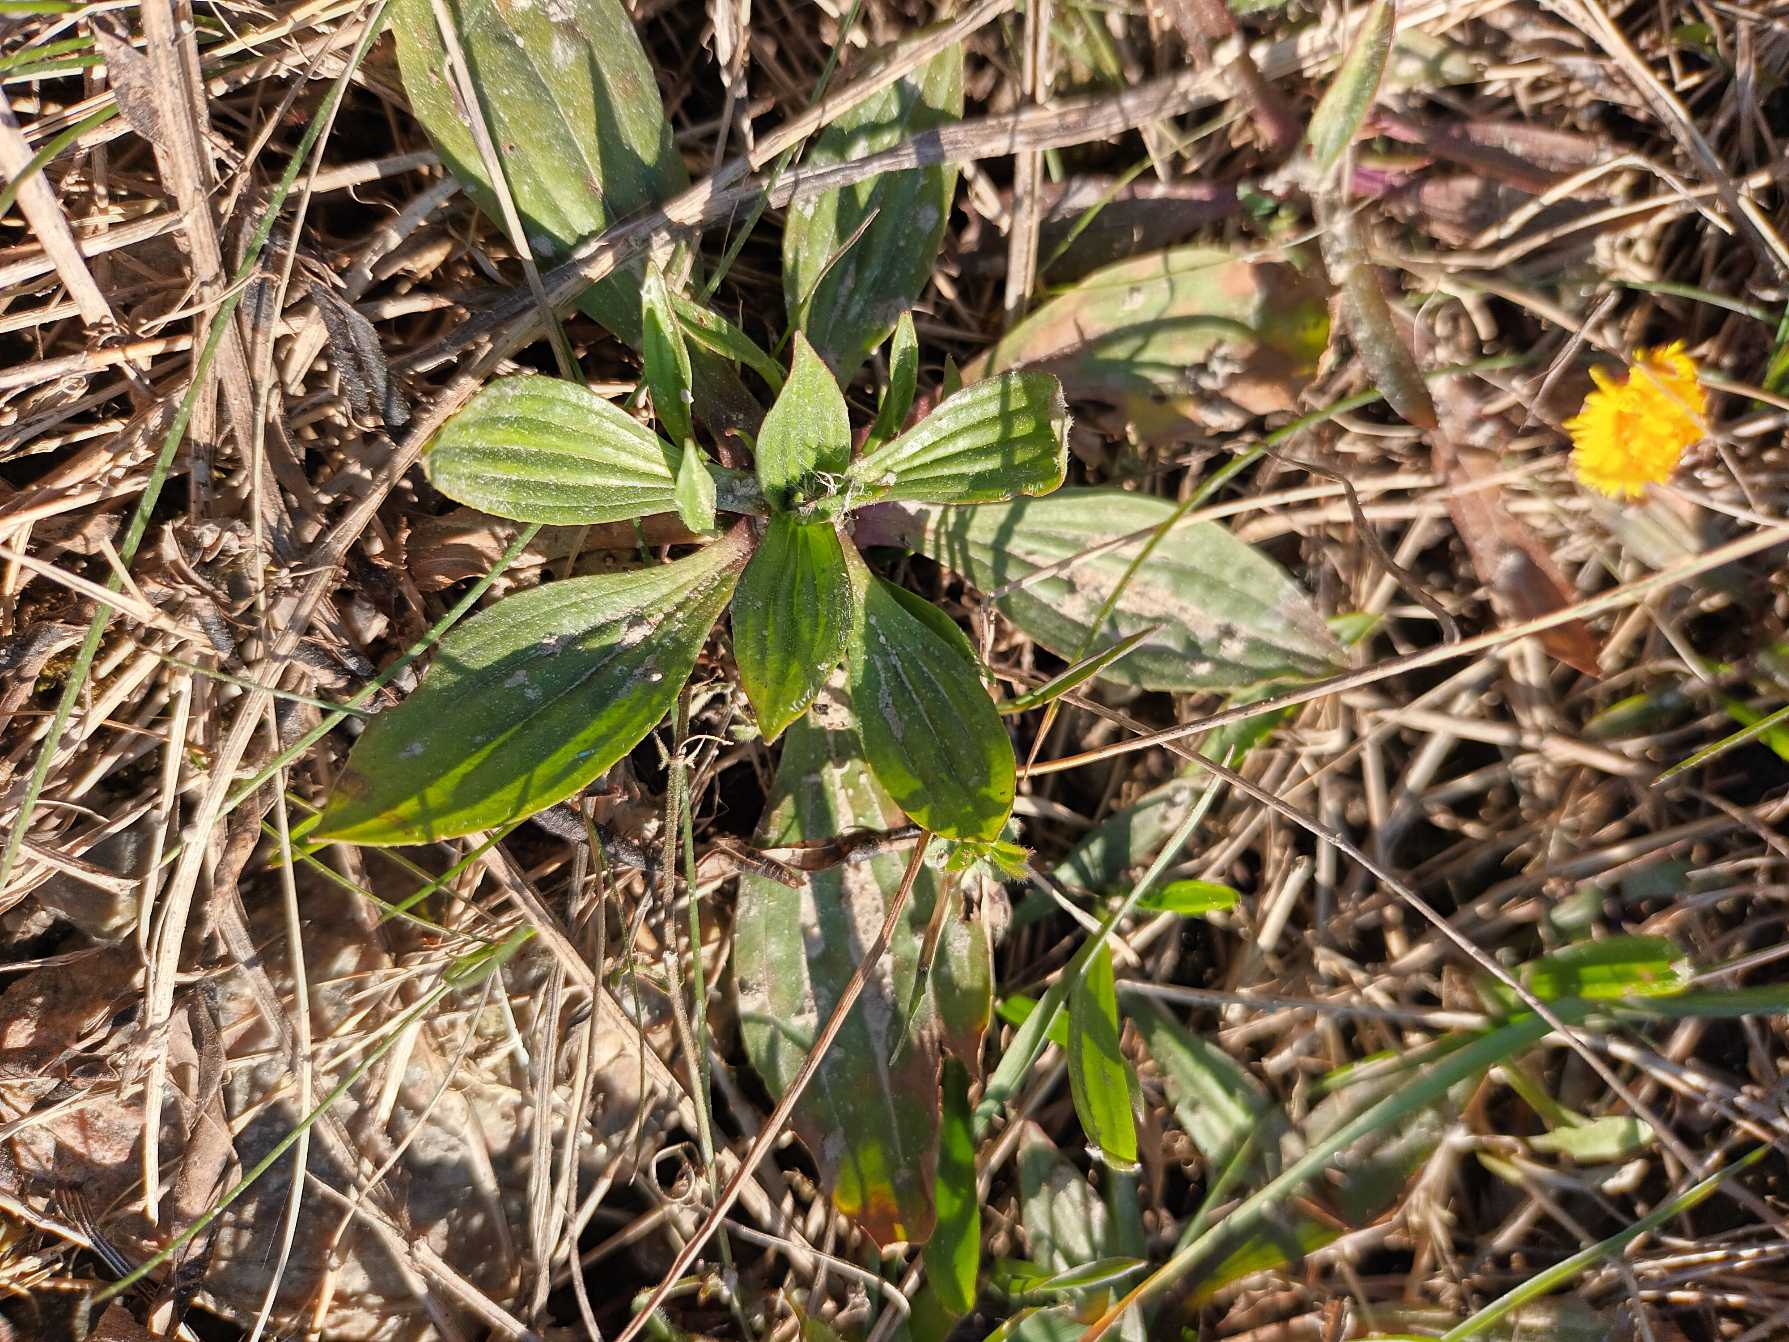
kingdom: Plantae
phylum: Tracheophyta
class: Magnoliopsida
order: Lamiales
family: Plantaginaceae
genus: Plantago
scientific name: Plantago lanceolata
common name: Lancet-vejbred
